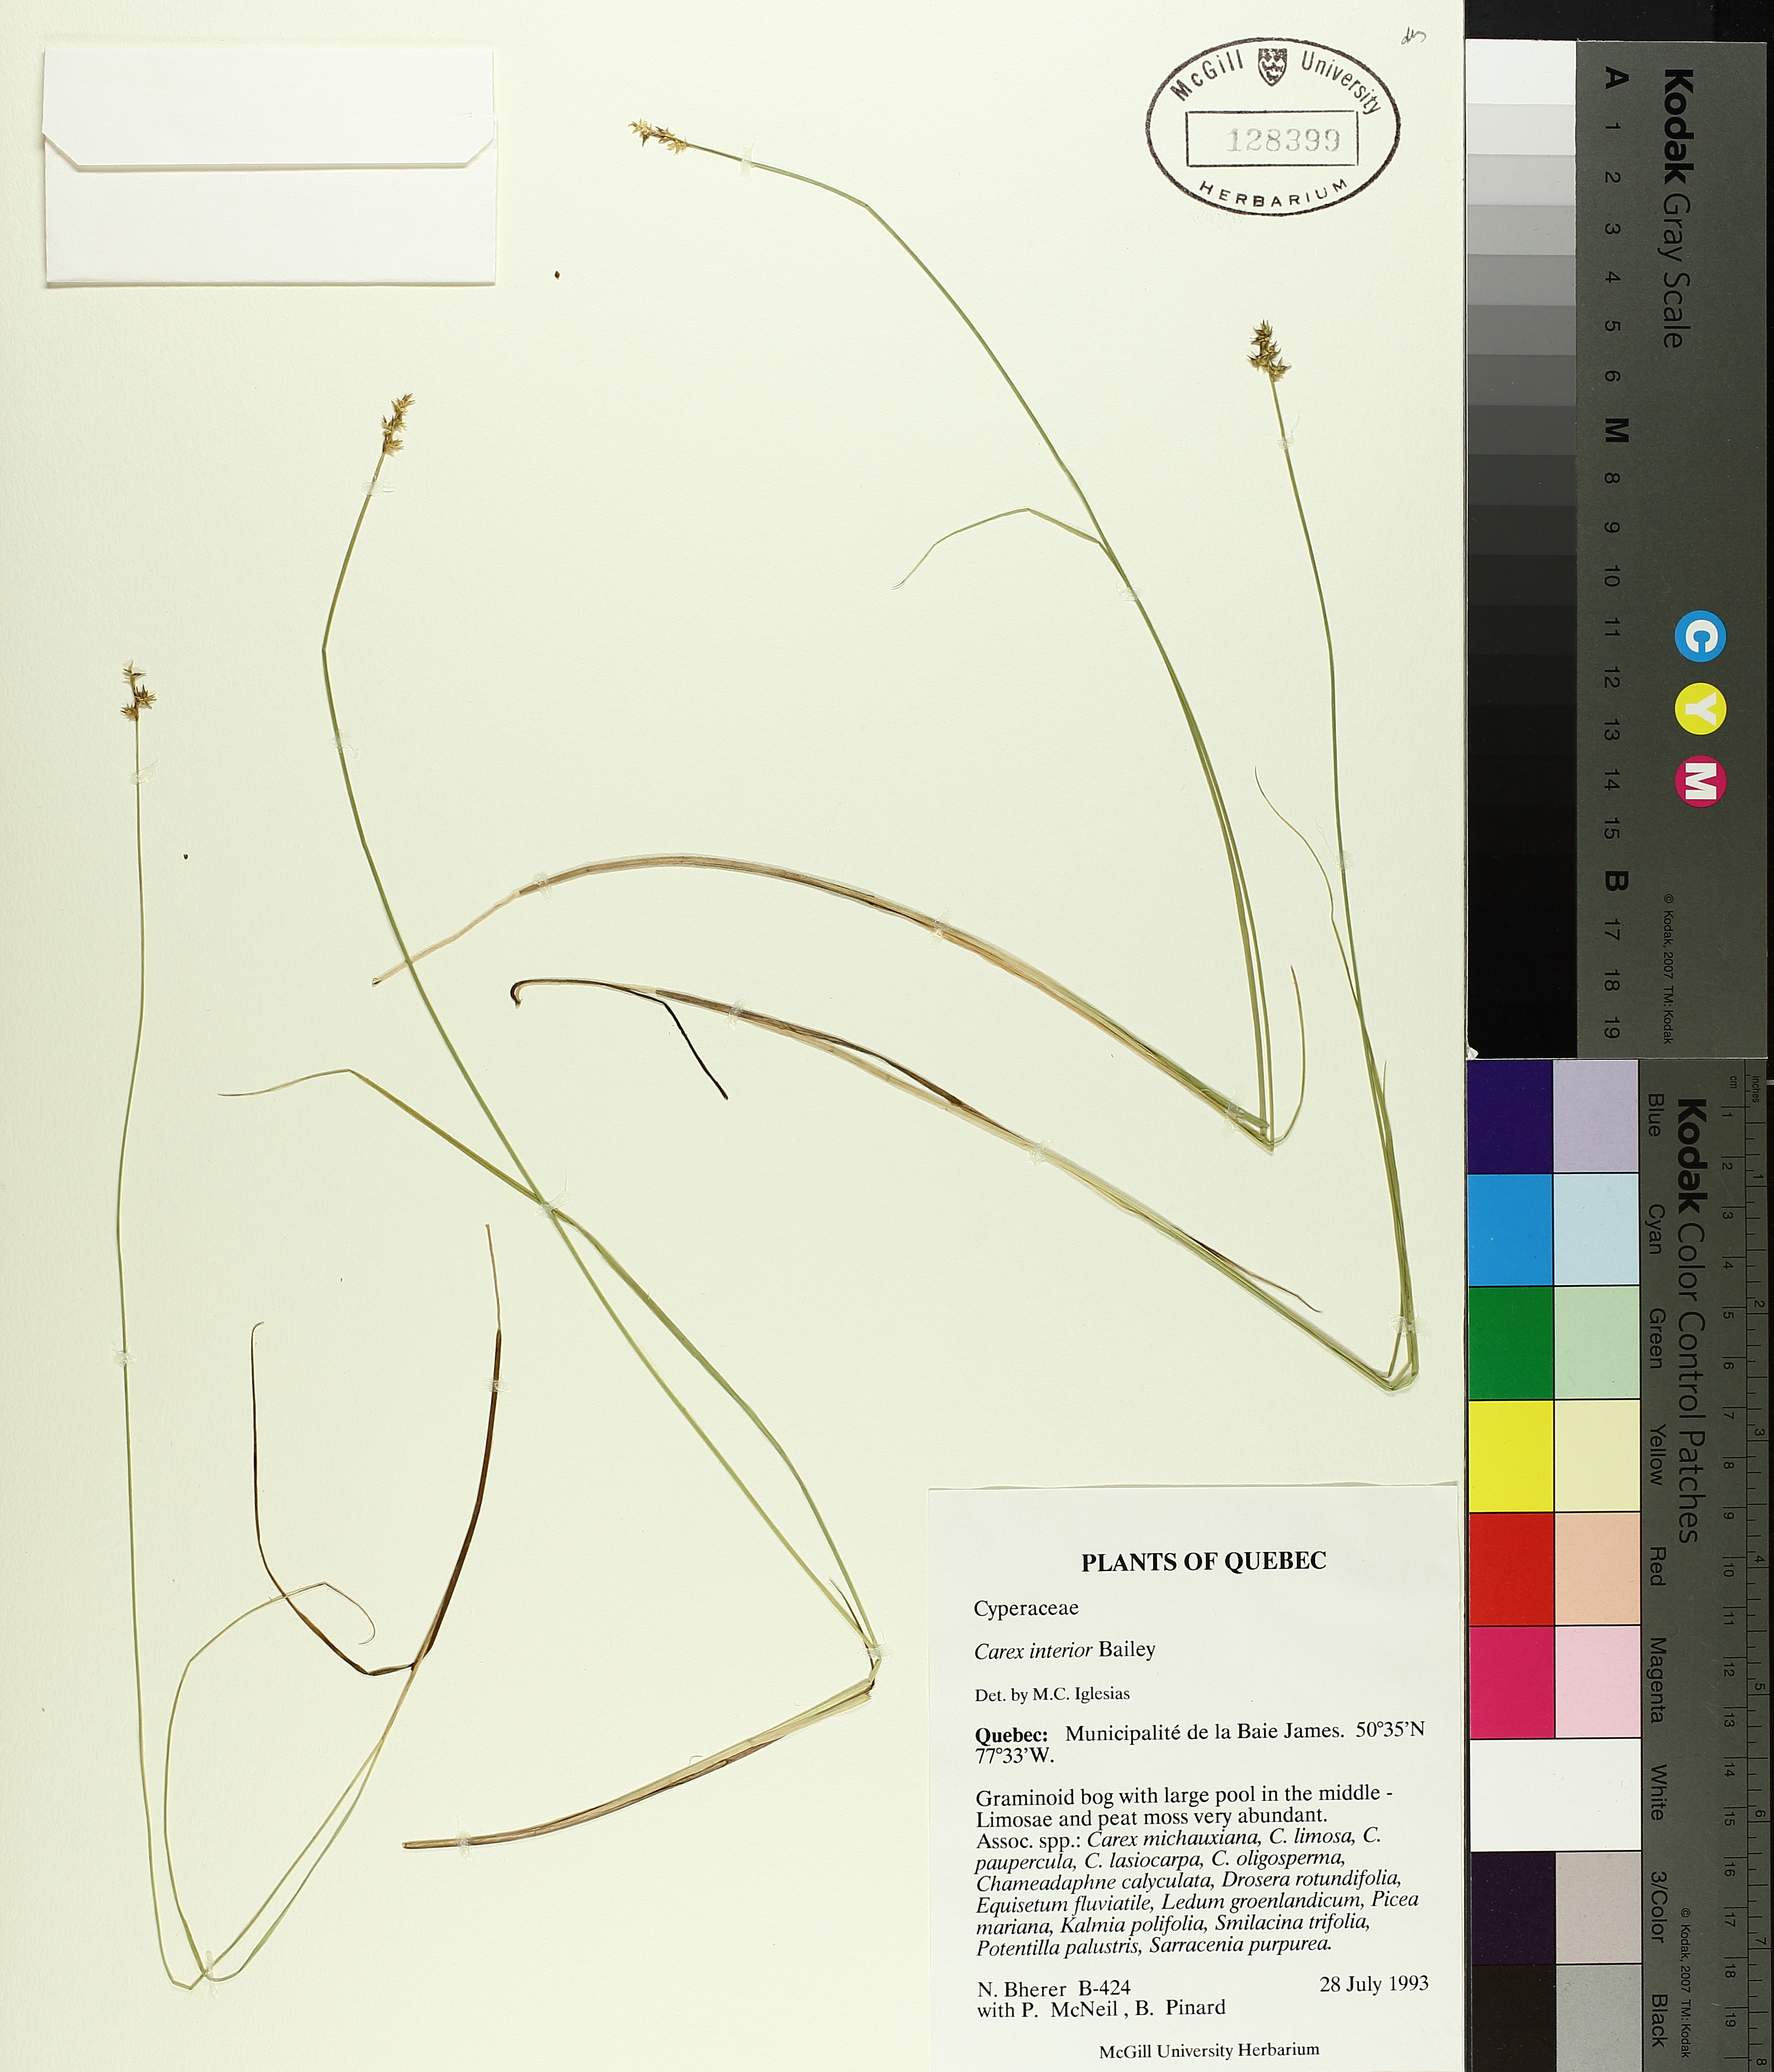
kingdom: Plantae
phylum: Tracheophyta
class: Liliopsida
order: Poales
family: Cyperaceae
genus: Carex
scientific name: Carex interior
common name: Inland sedge
